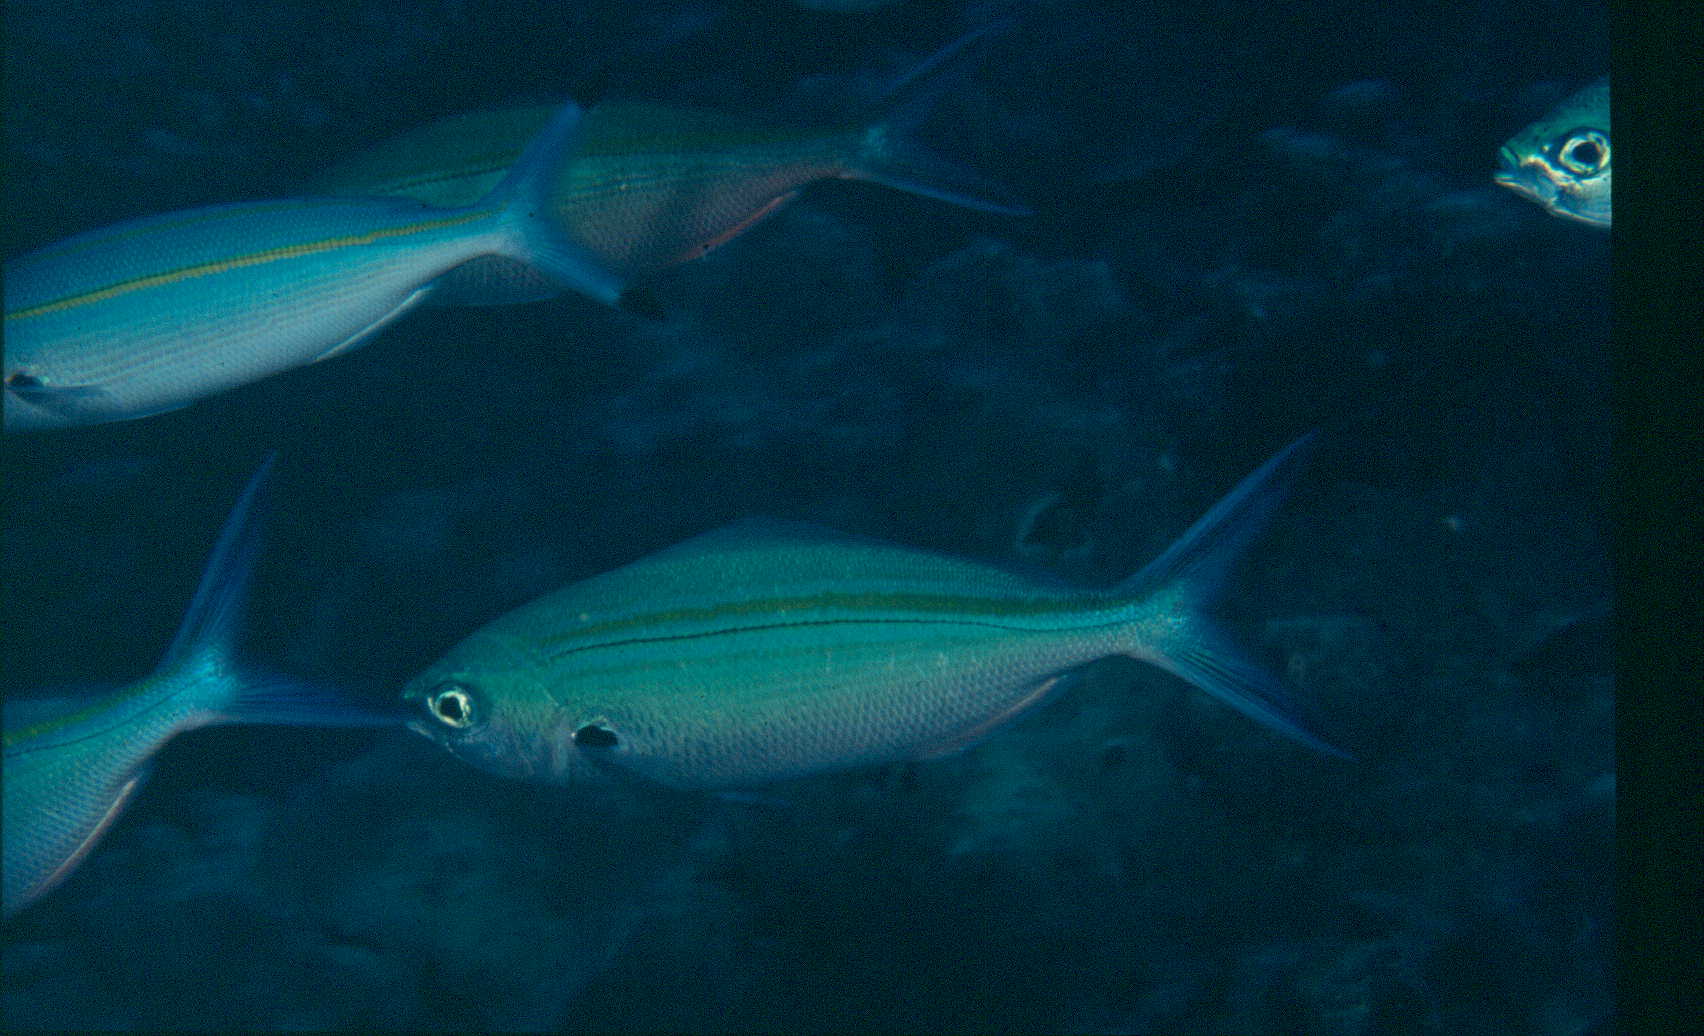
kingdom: Animalia
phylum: Chordata
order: Perciformes
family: Caesionidae
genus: Caesio
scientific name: Caesio caerulaurea
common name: Blue and gold fusilier
